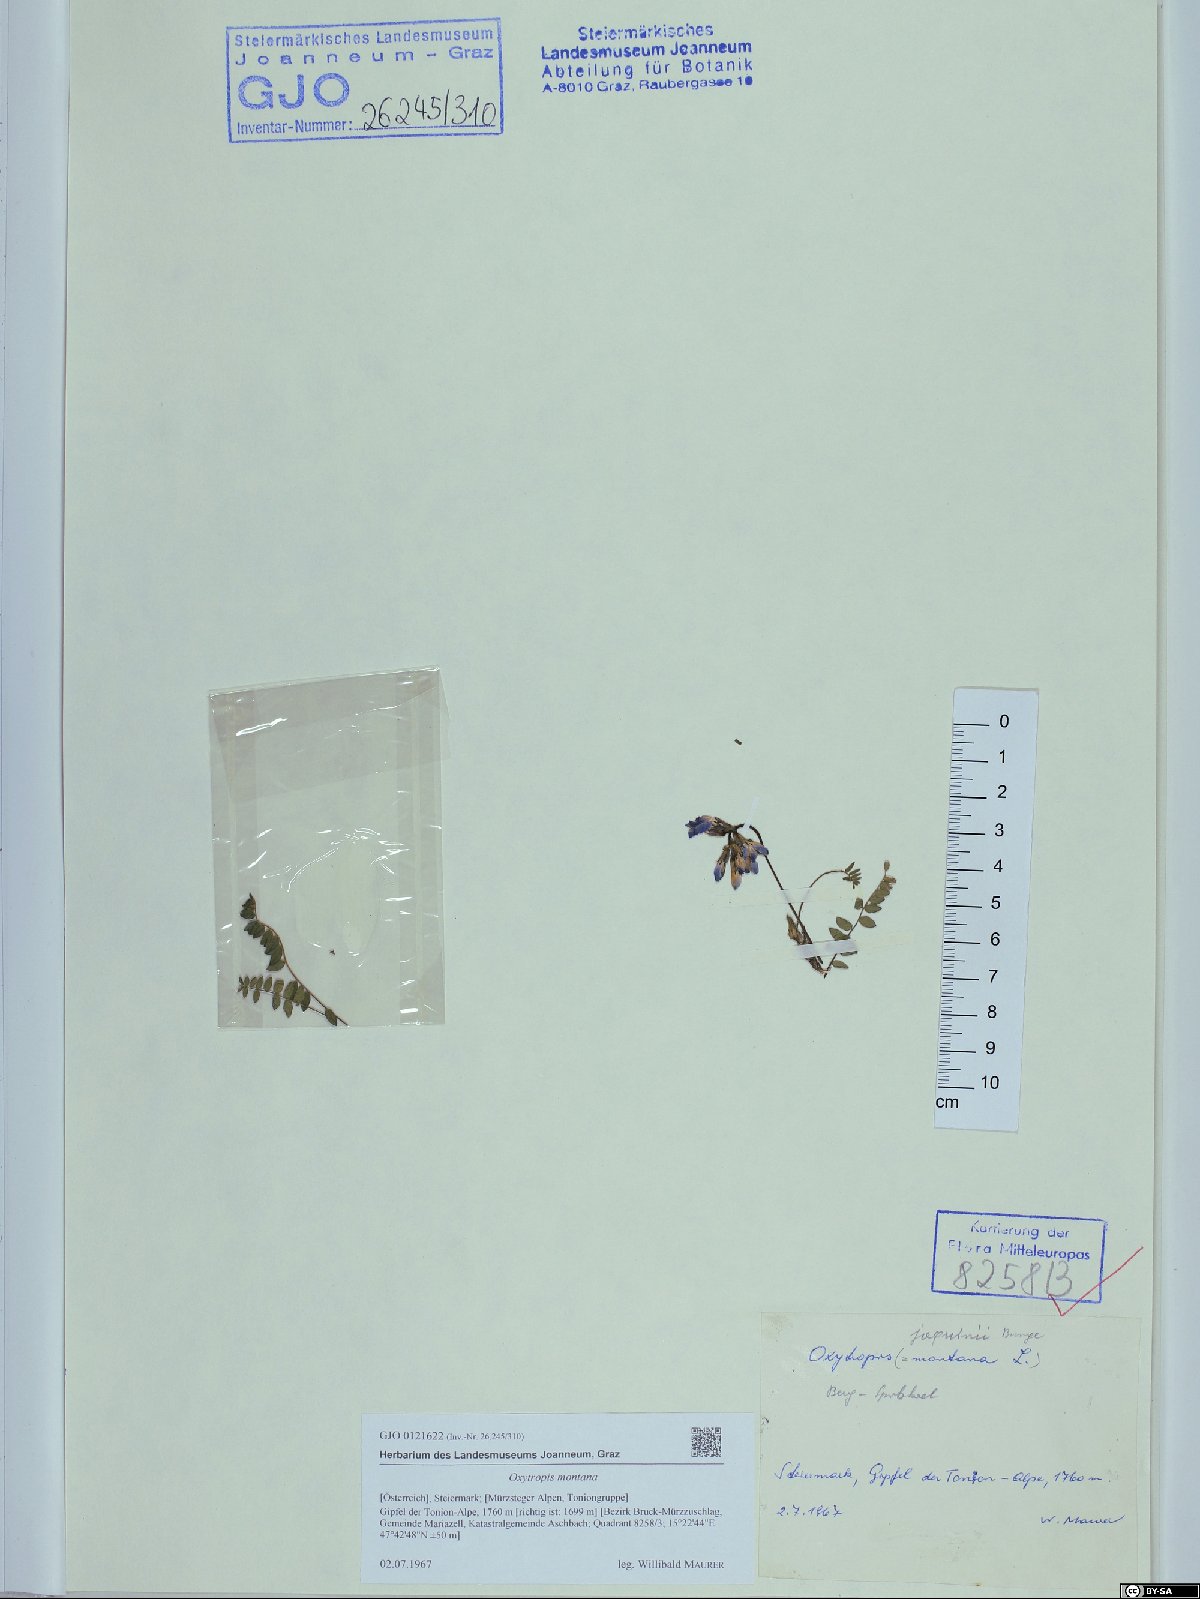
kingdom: Plantae
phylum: Tracheophyta
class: Magnoliopsida
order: Fabales
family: Fabaceae
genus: Oxytropis
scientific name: Oxytropis montana
